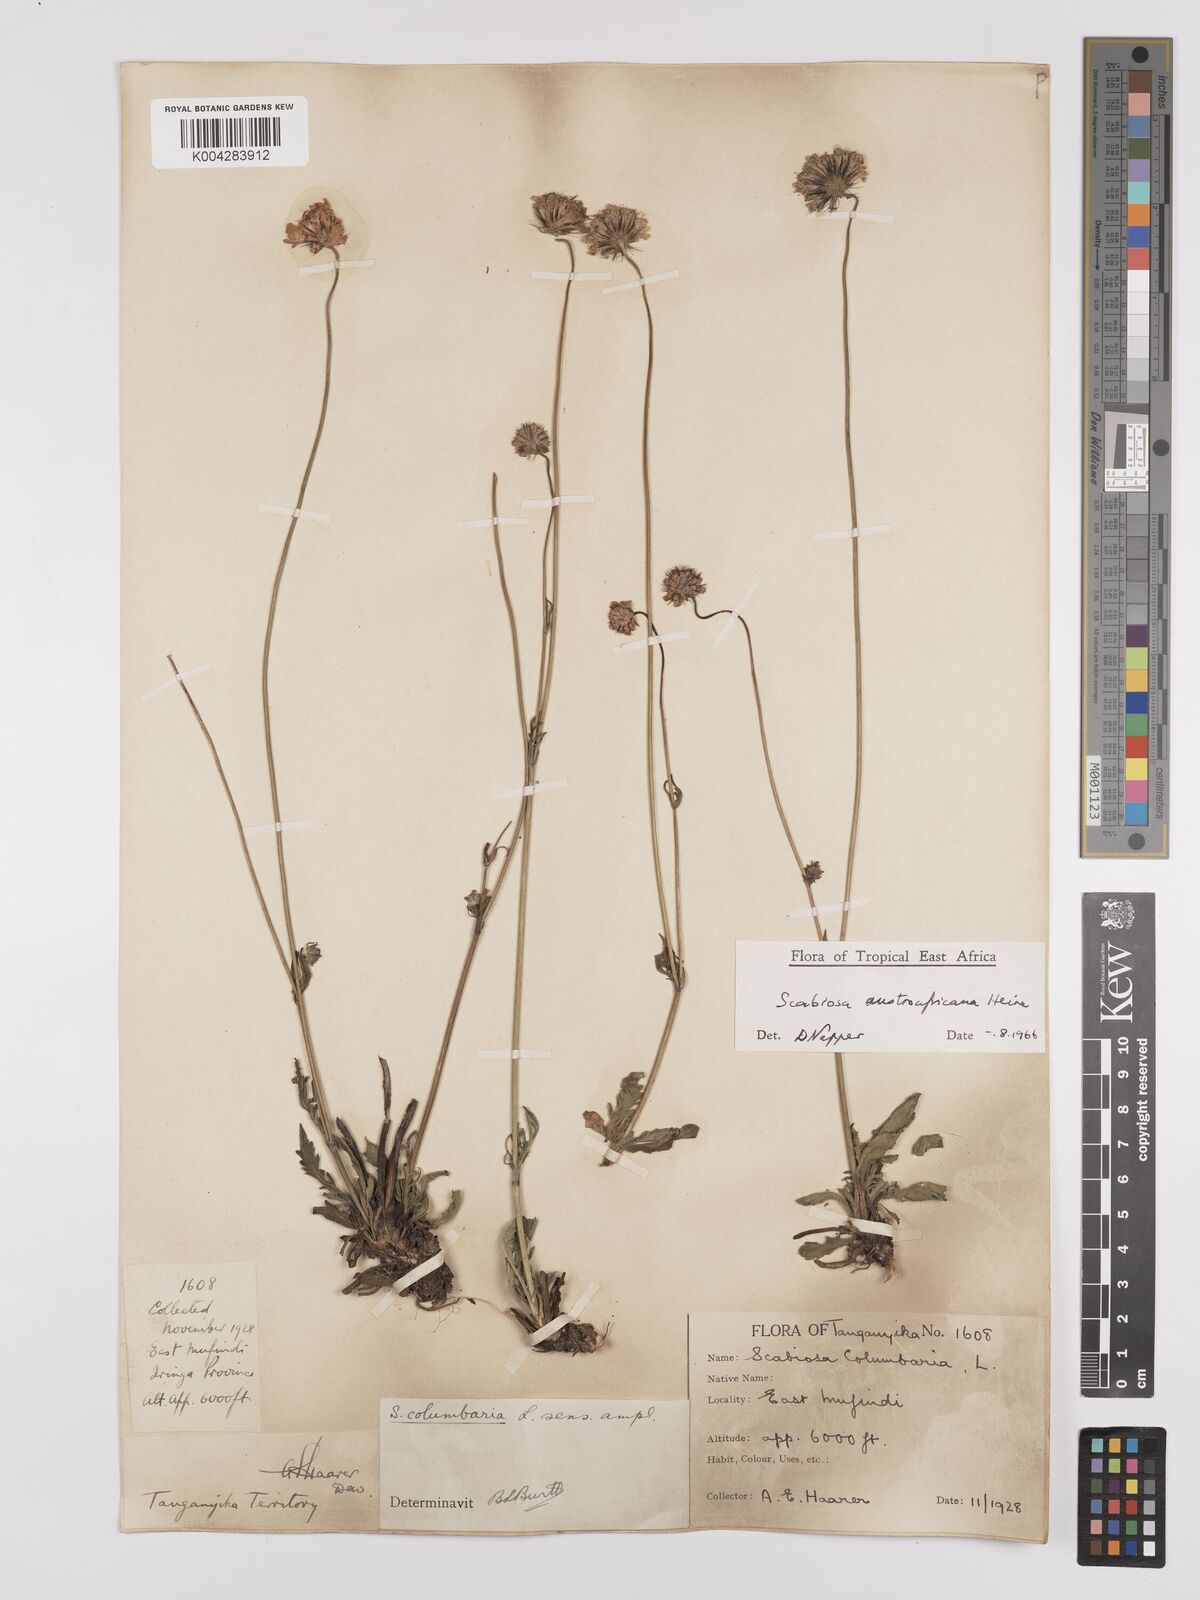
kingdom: Plantae
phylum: Tracheophyta
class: Magnoliopsida
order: Dipsacales
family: Caprifoliaceae
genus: Scabiosa
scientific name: Scabiosa austroafricana
